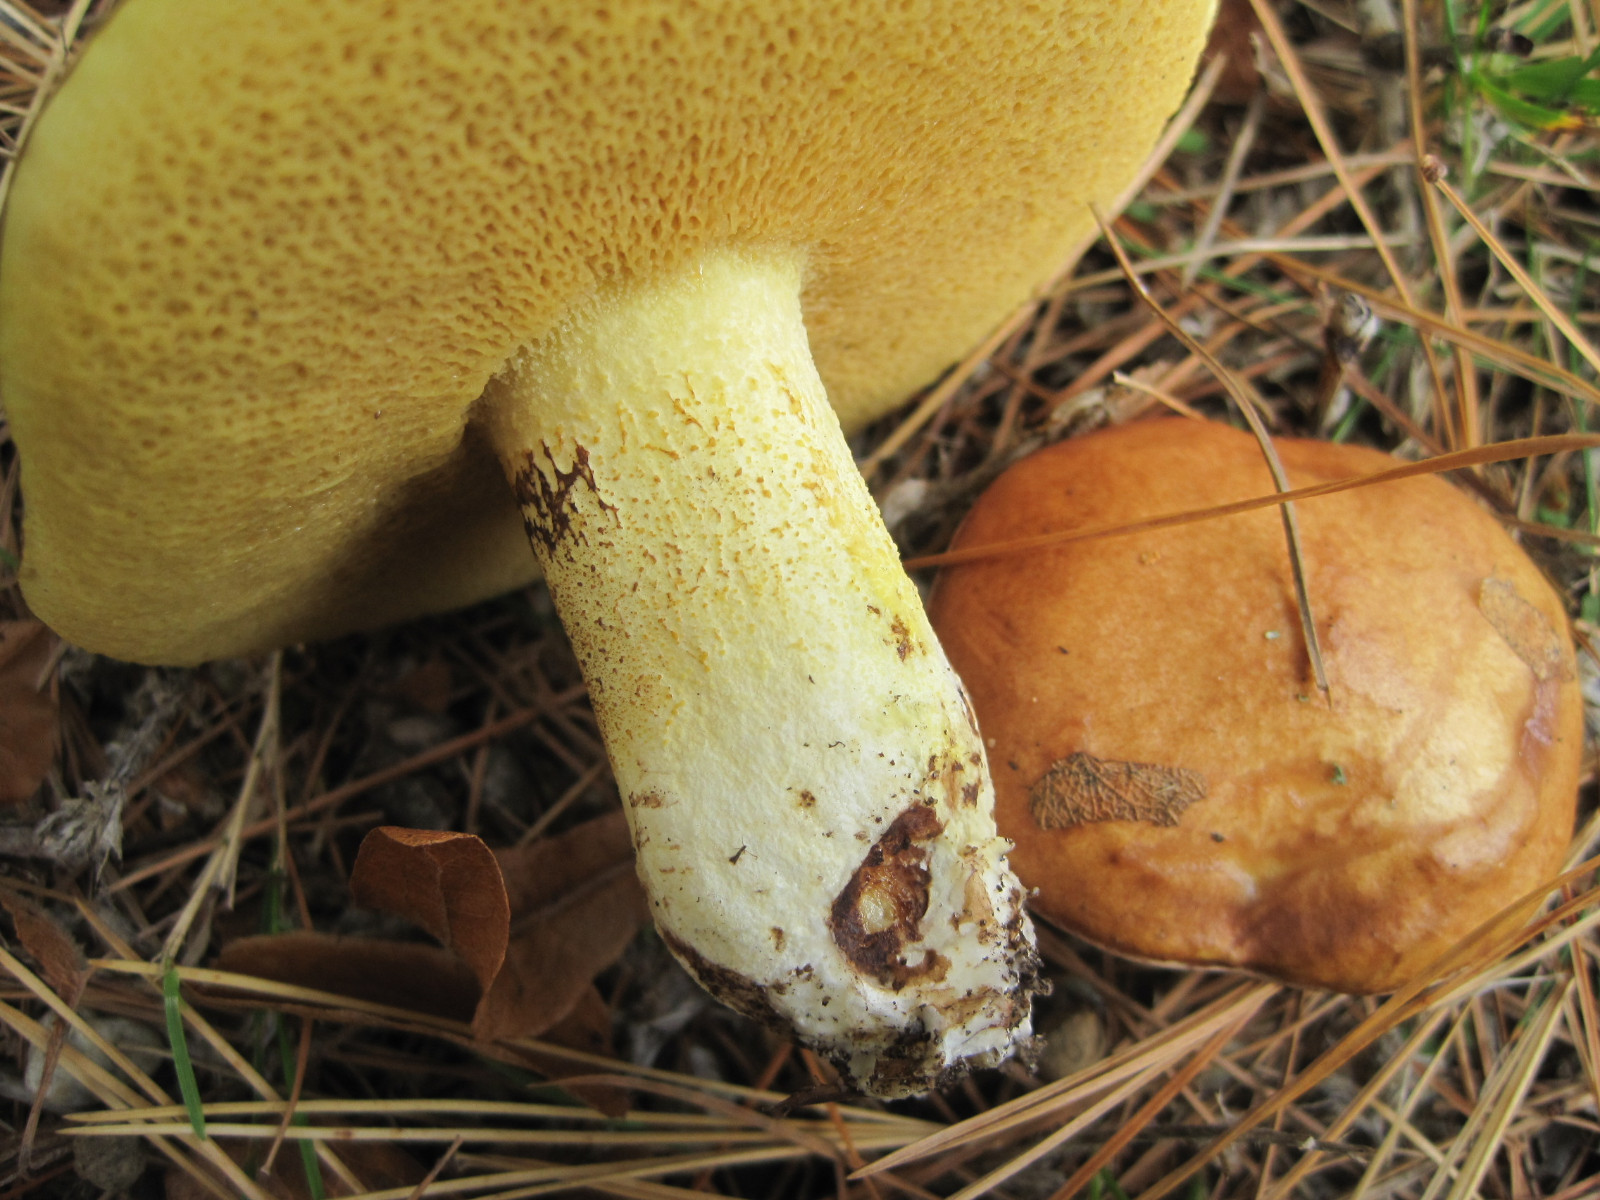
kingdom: Fungi
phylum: Basidiomycota
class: Agaricomycetes
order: Boletales
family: Suillaceae
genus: Suillus
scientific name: Suillus granulatus
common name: kornet slimrørhat
